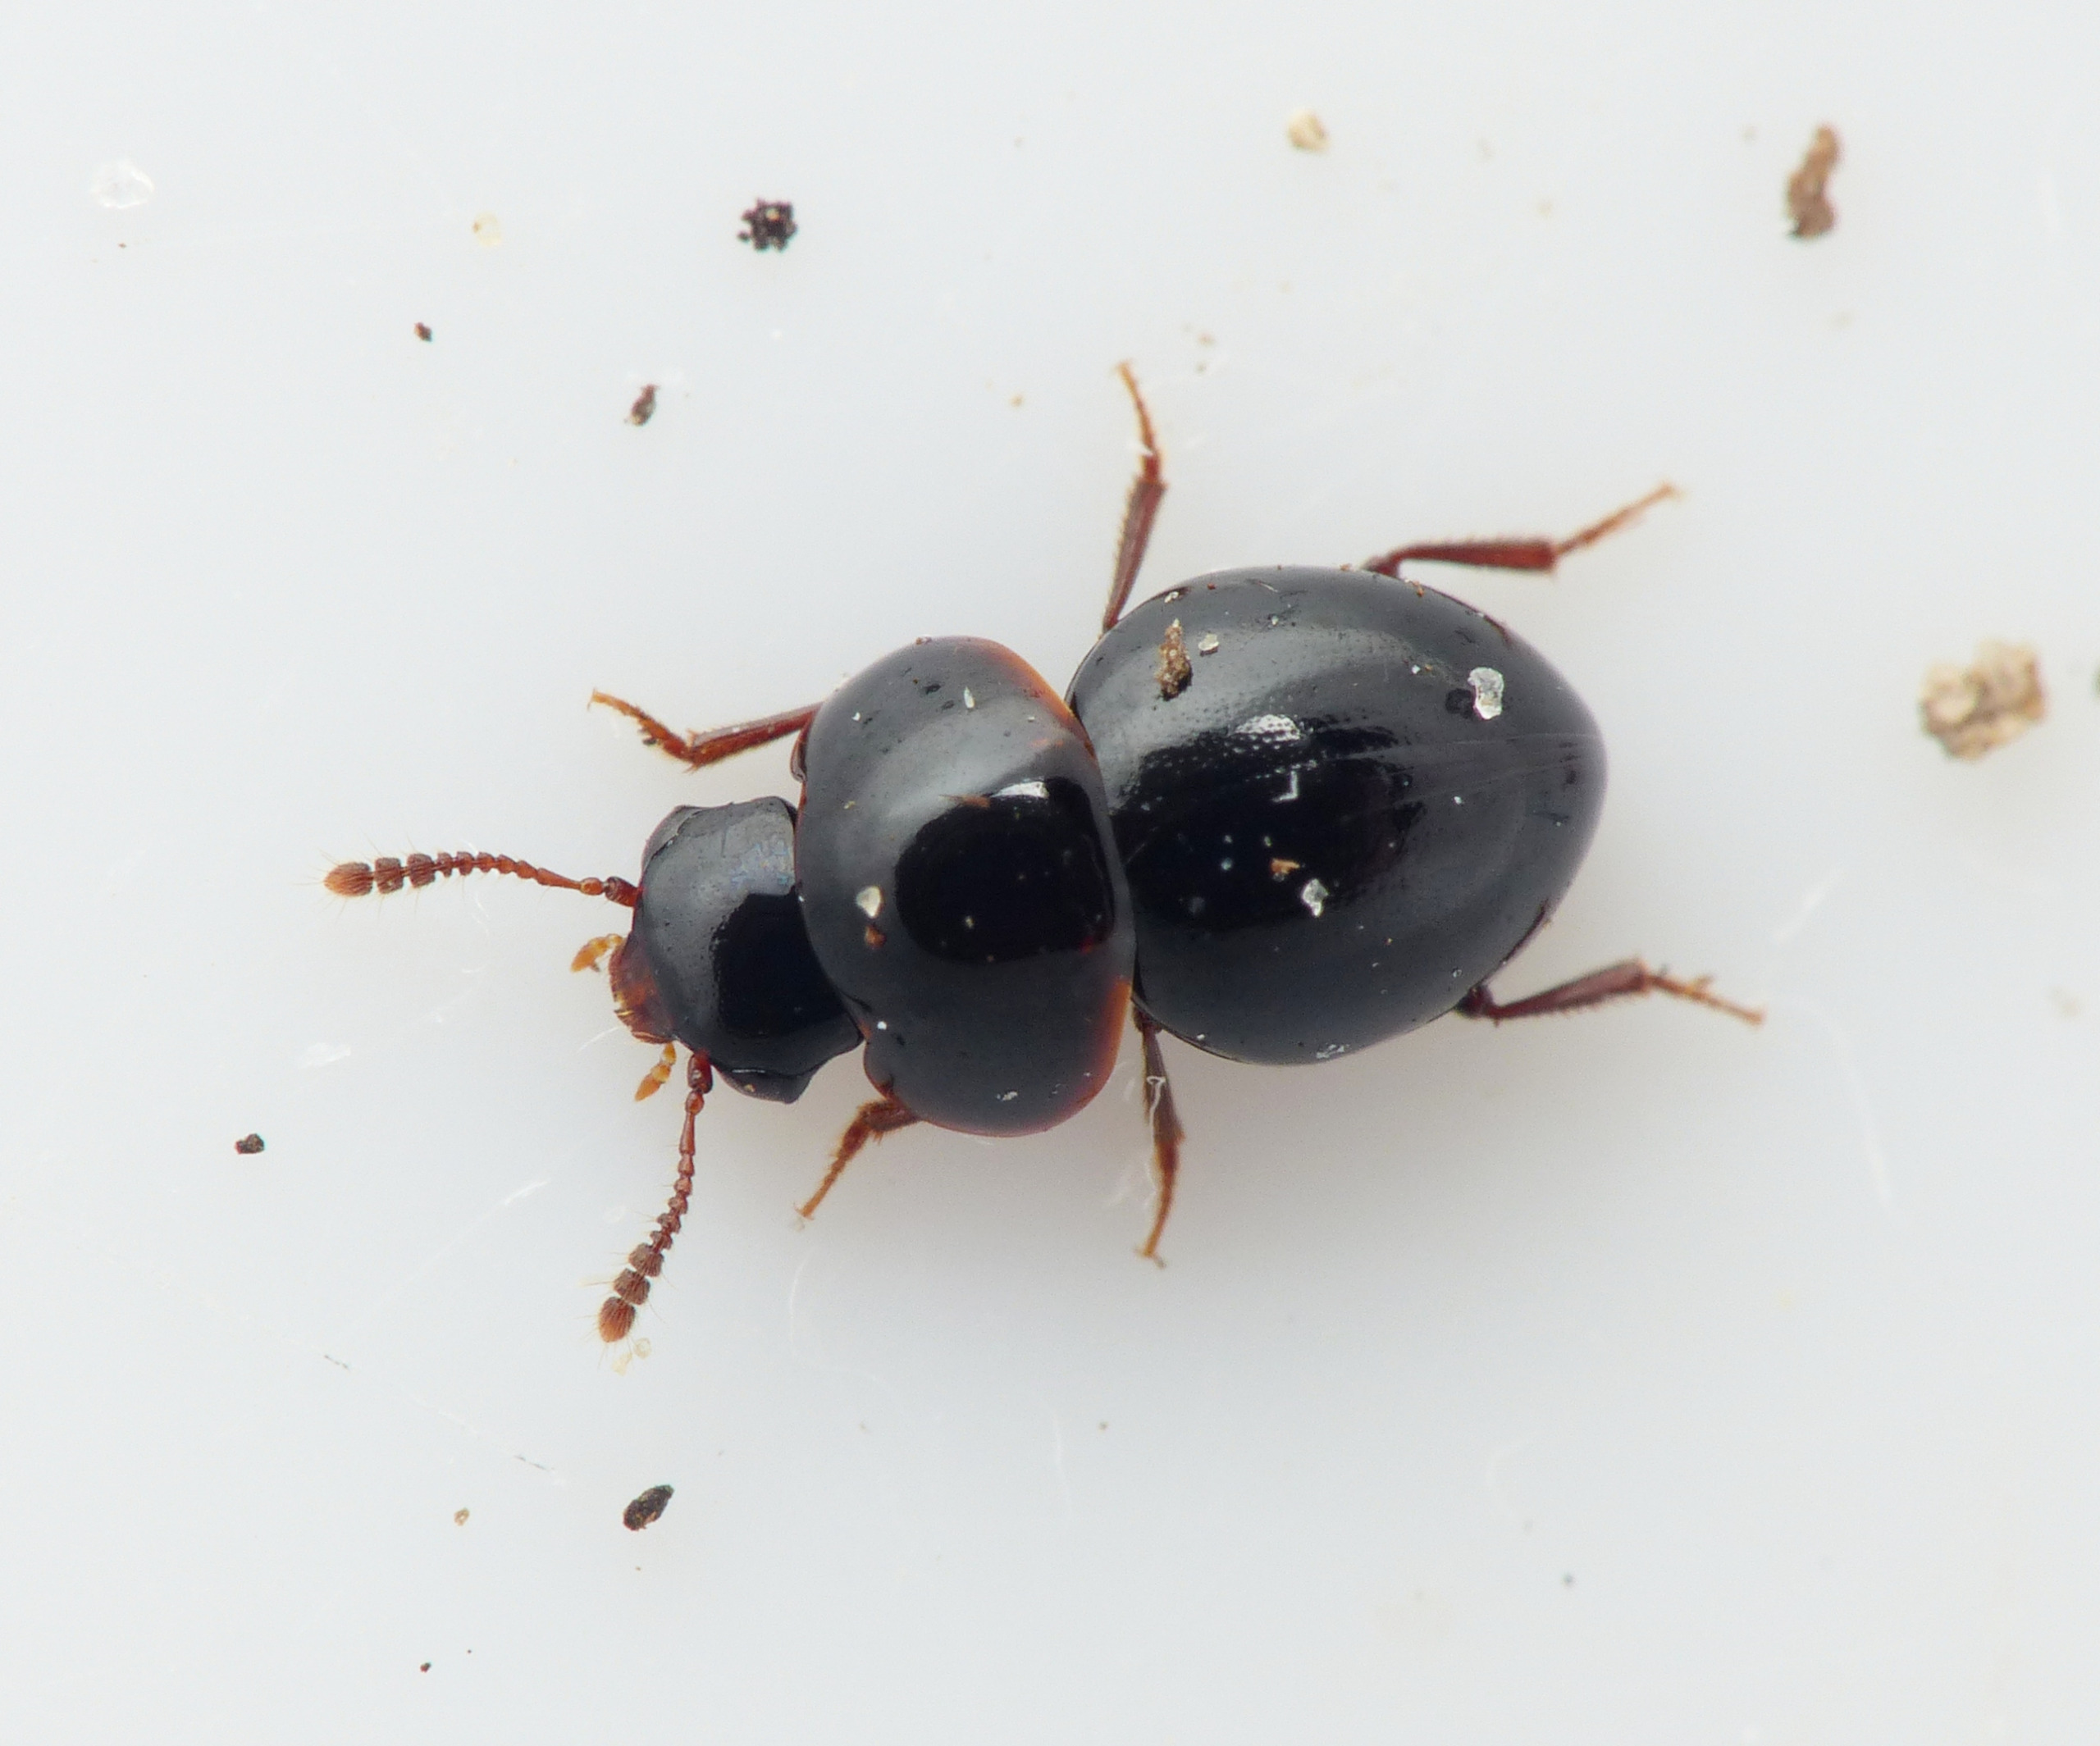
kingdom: Animalia
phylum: Arthropoda
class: Insecta
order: Coleoptera
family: Leiodidae
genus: Agathidium
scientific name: Agathidium atrum
